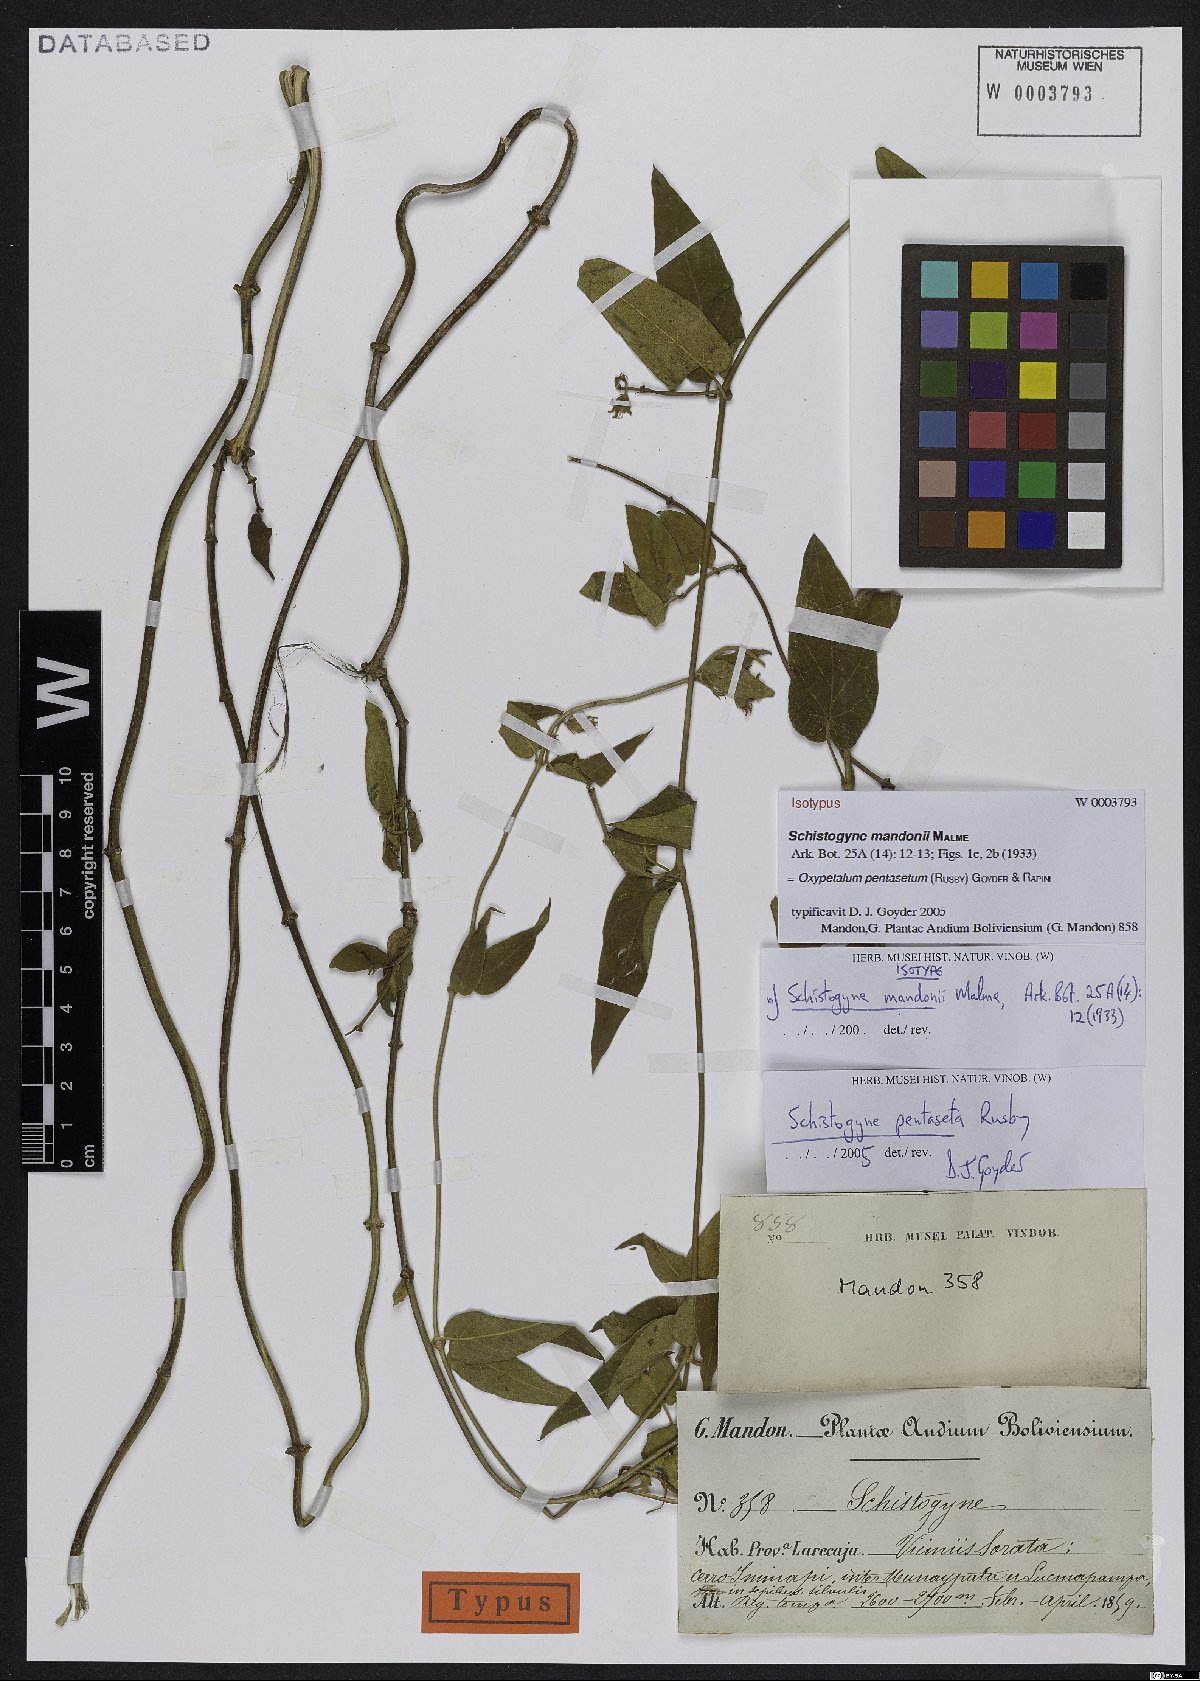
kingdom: Plantae
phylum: Tracheophyta
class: Magnoliopsida
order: Gentianales
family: Apocynaceae
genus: Oxypetalum
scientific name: Oxypetalum pentasetum
